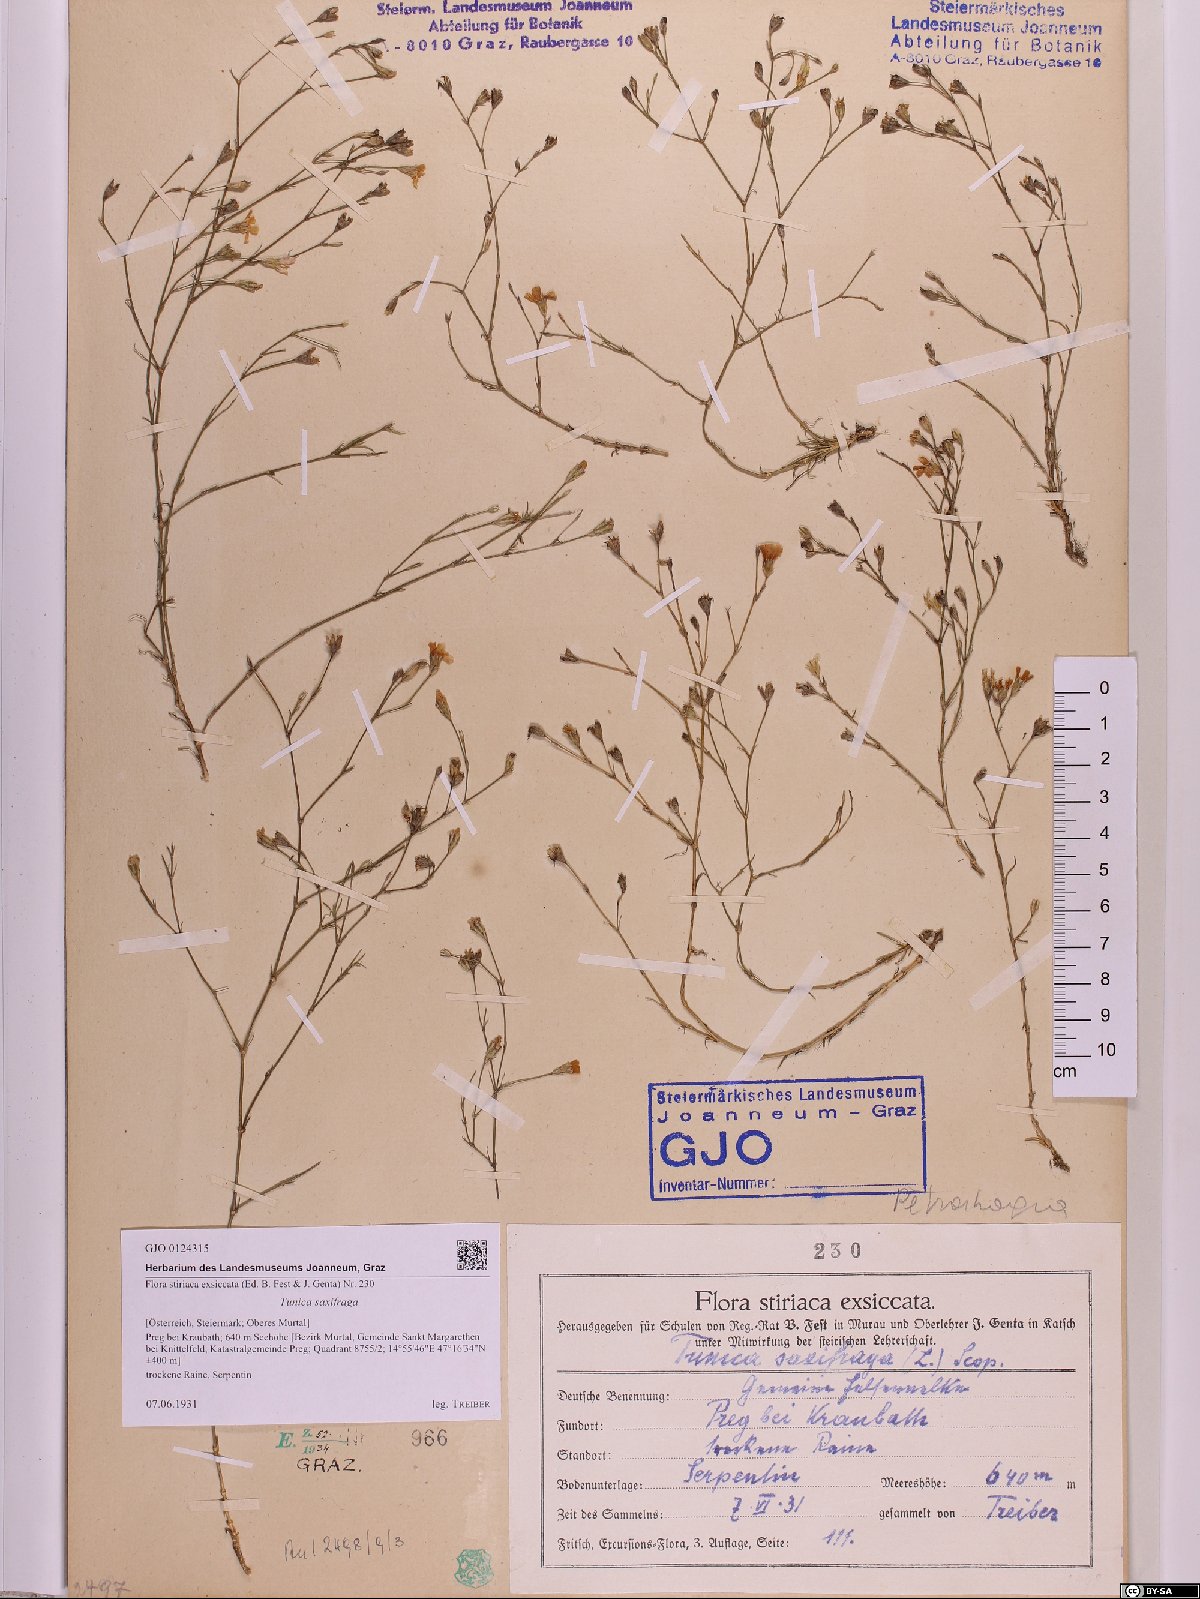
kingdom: Plantae
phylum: Tracheophyta
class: Magnoliopsida
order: Caryophyllales
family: Caryophyllaceae
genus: Petrorhagia
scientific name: Petrorhagia saxifraga
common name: Tunicflower
